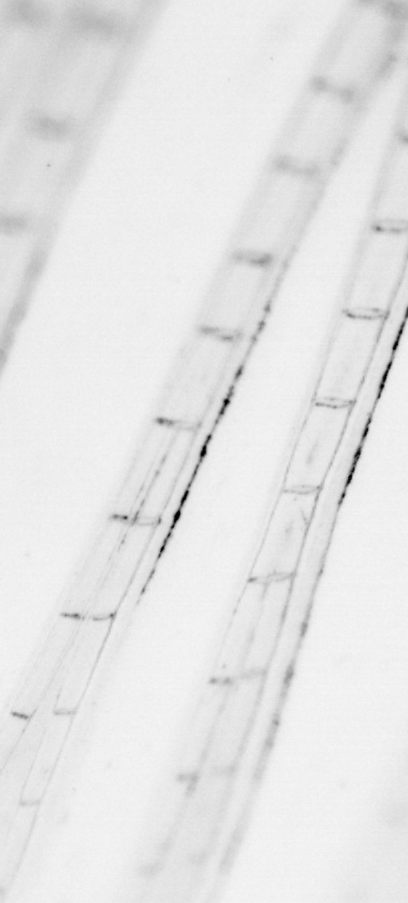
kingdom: Animalia
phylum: Chordata
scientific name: Chordata
